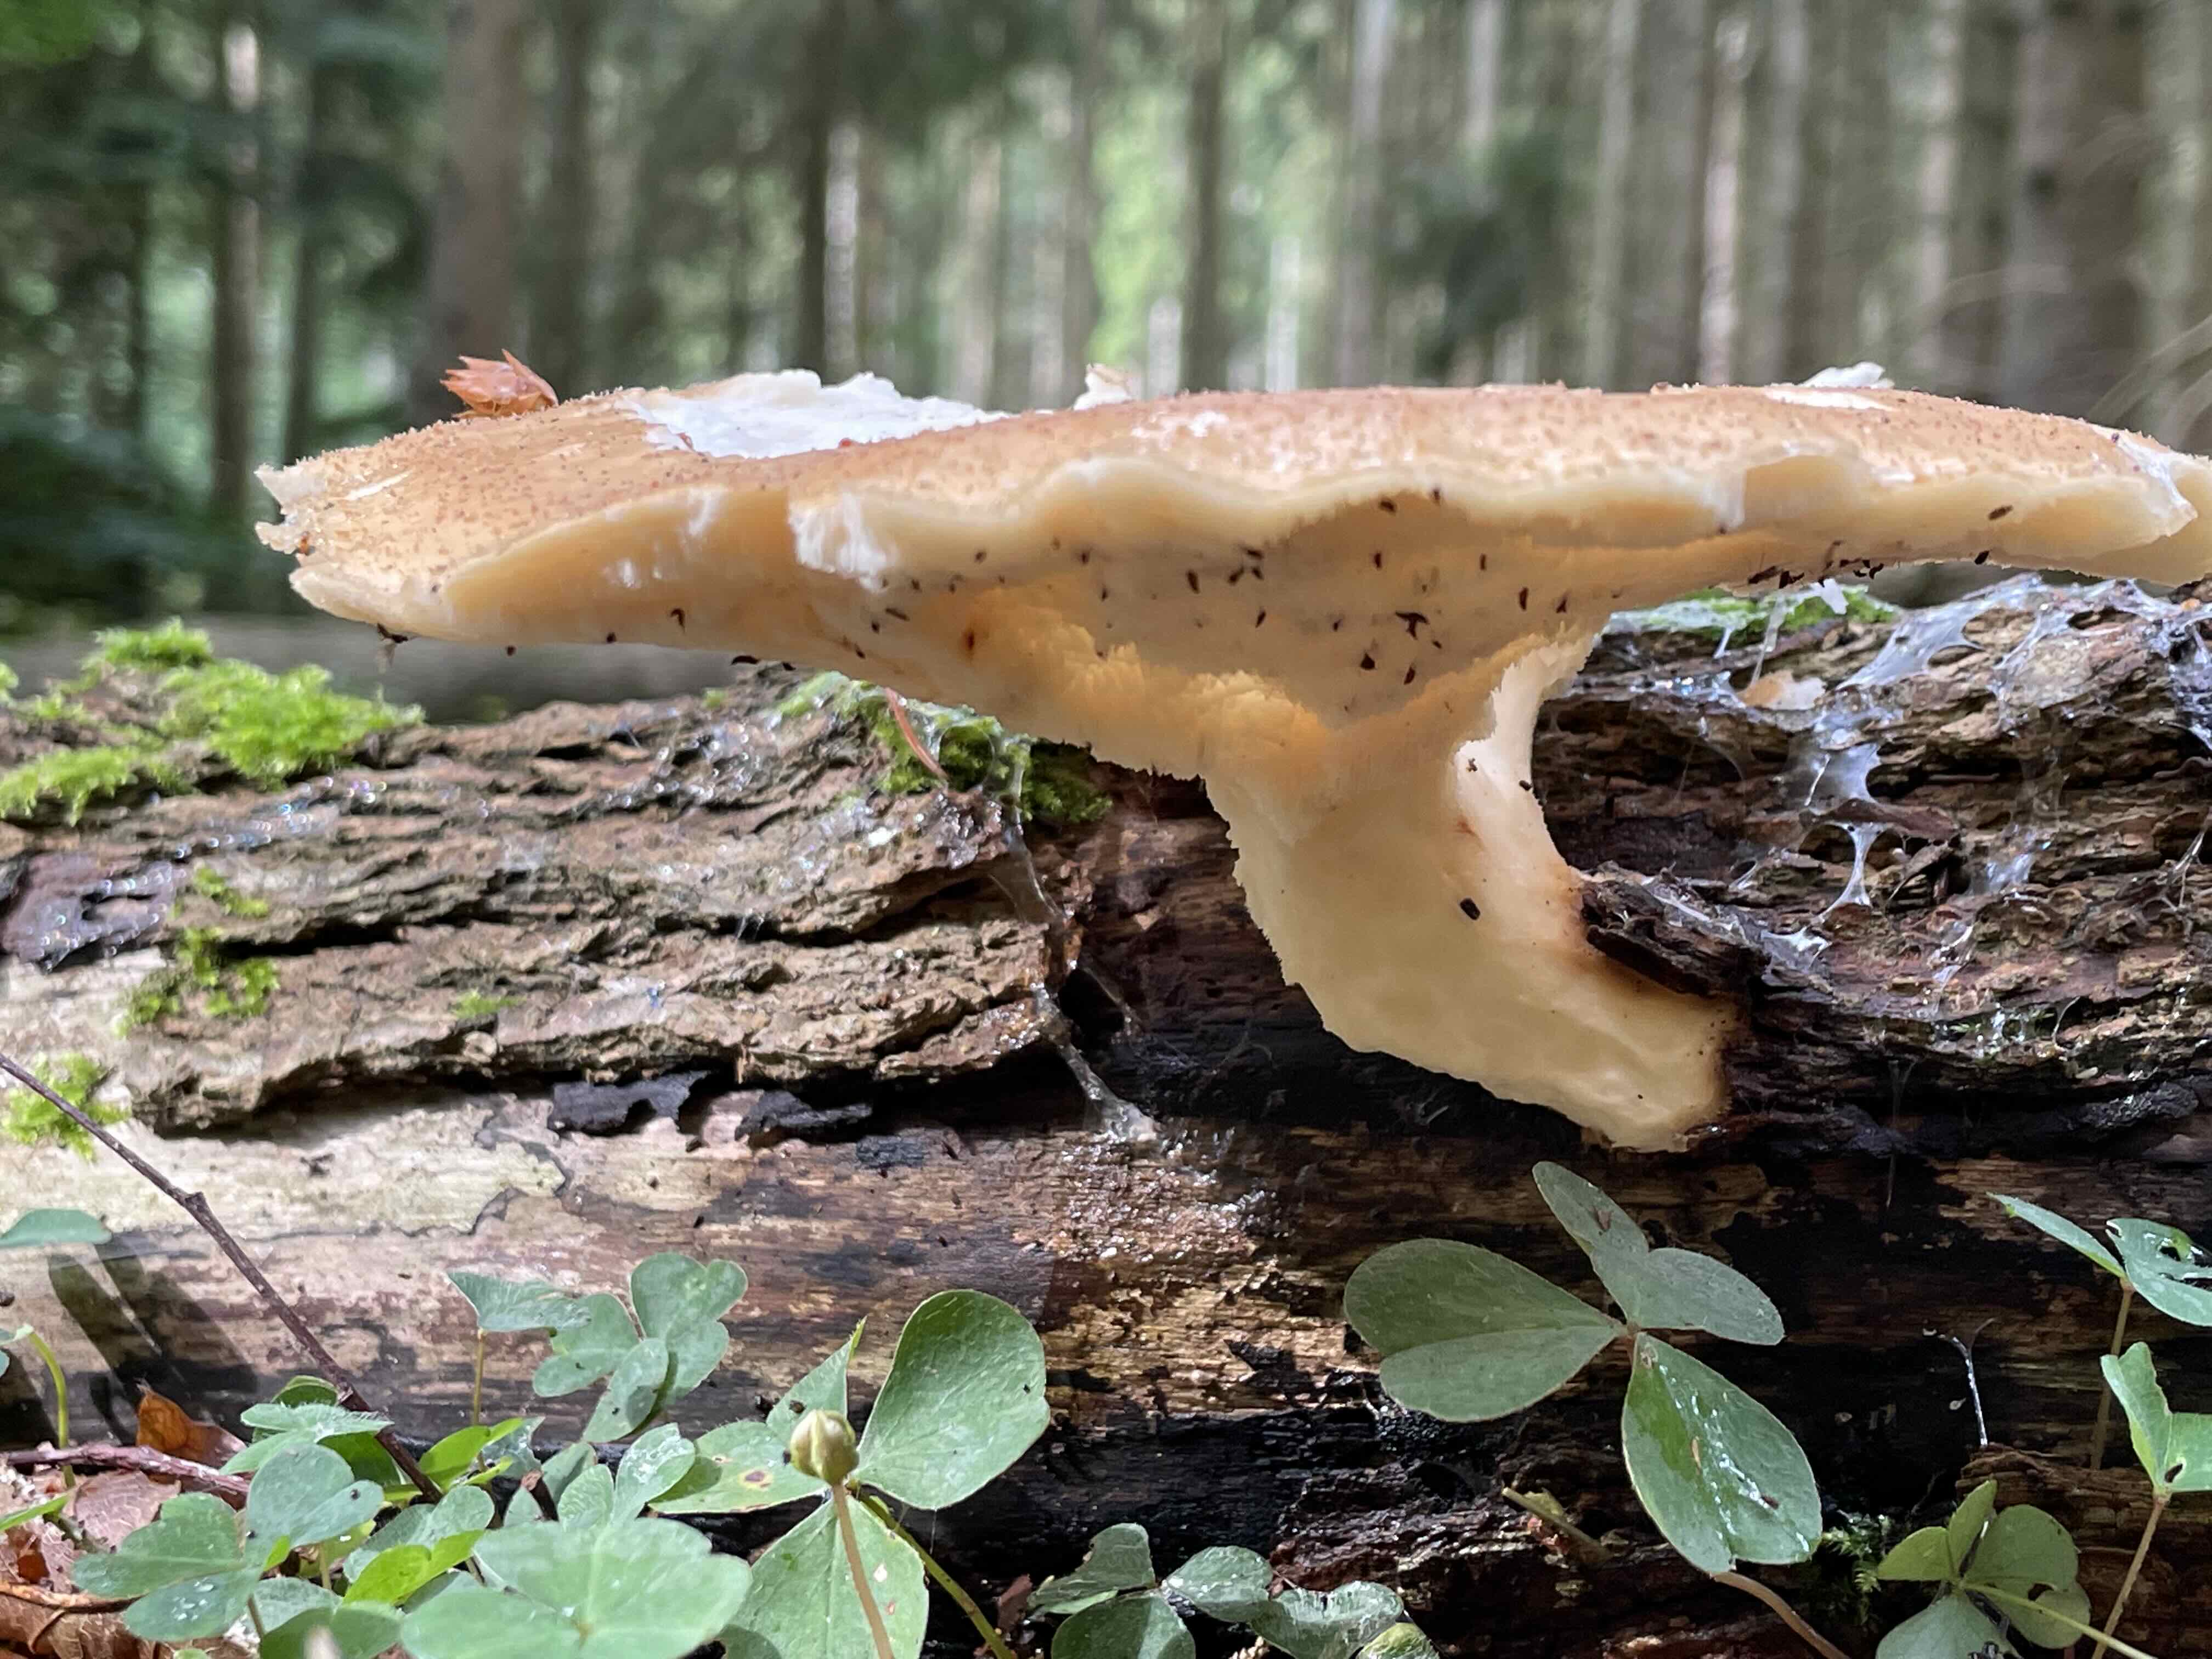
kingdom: Fungi
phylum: Basidiomycota
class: Agaricomycetes
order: Polyporales
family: Polyporaceae
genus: Polyporus
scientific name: Polyporus tuberaster
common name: knoldet stilkporesvamp
